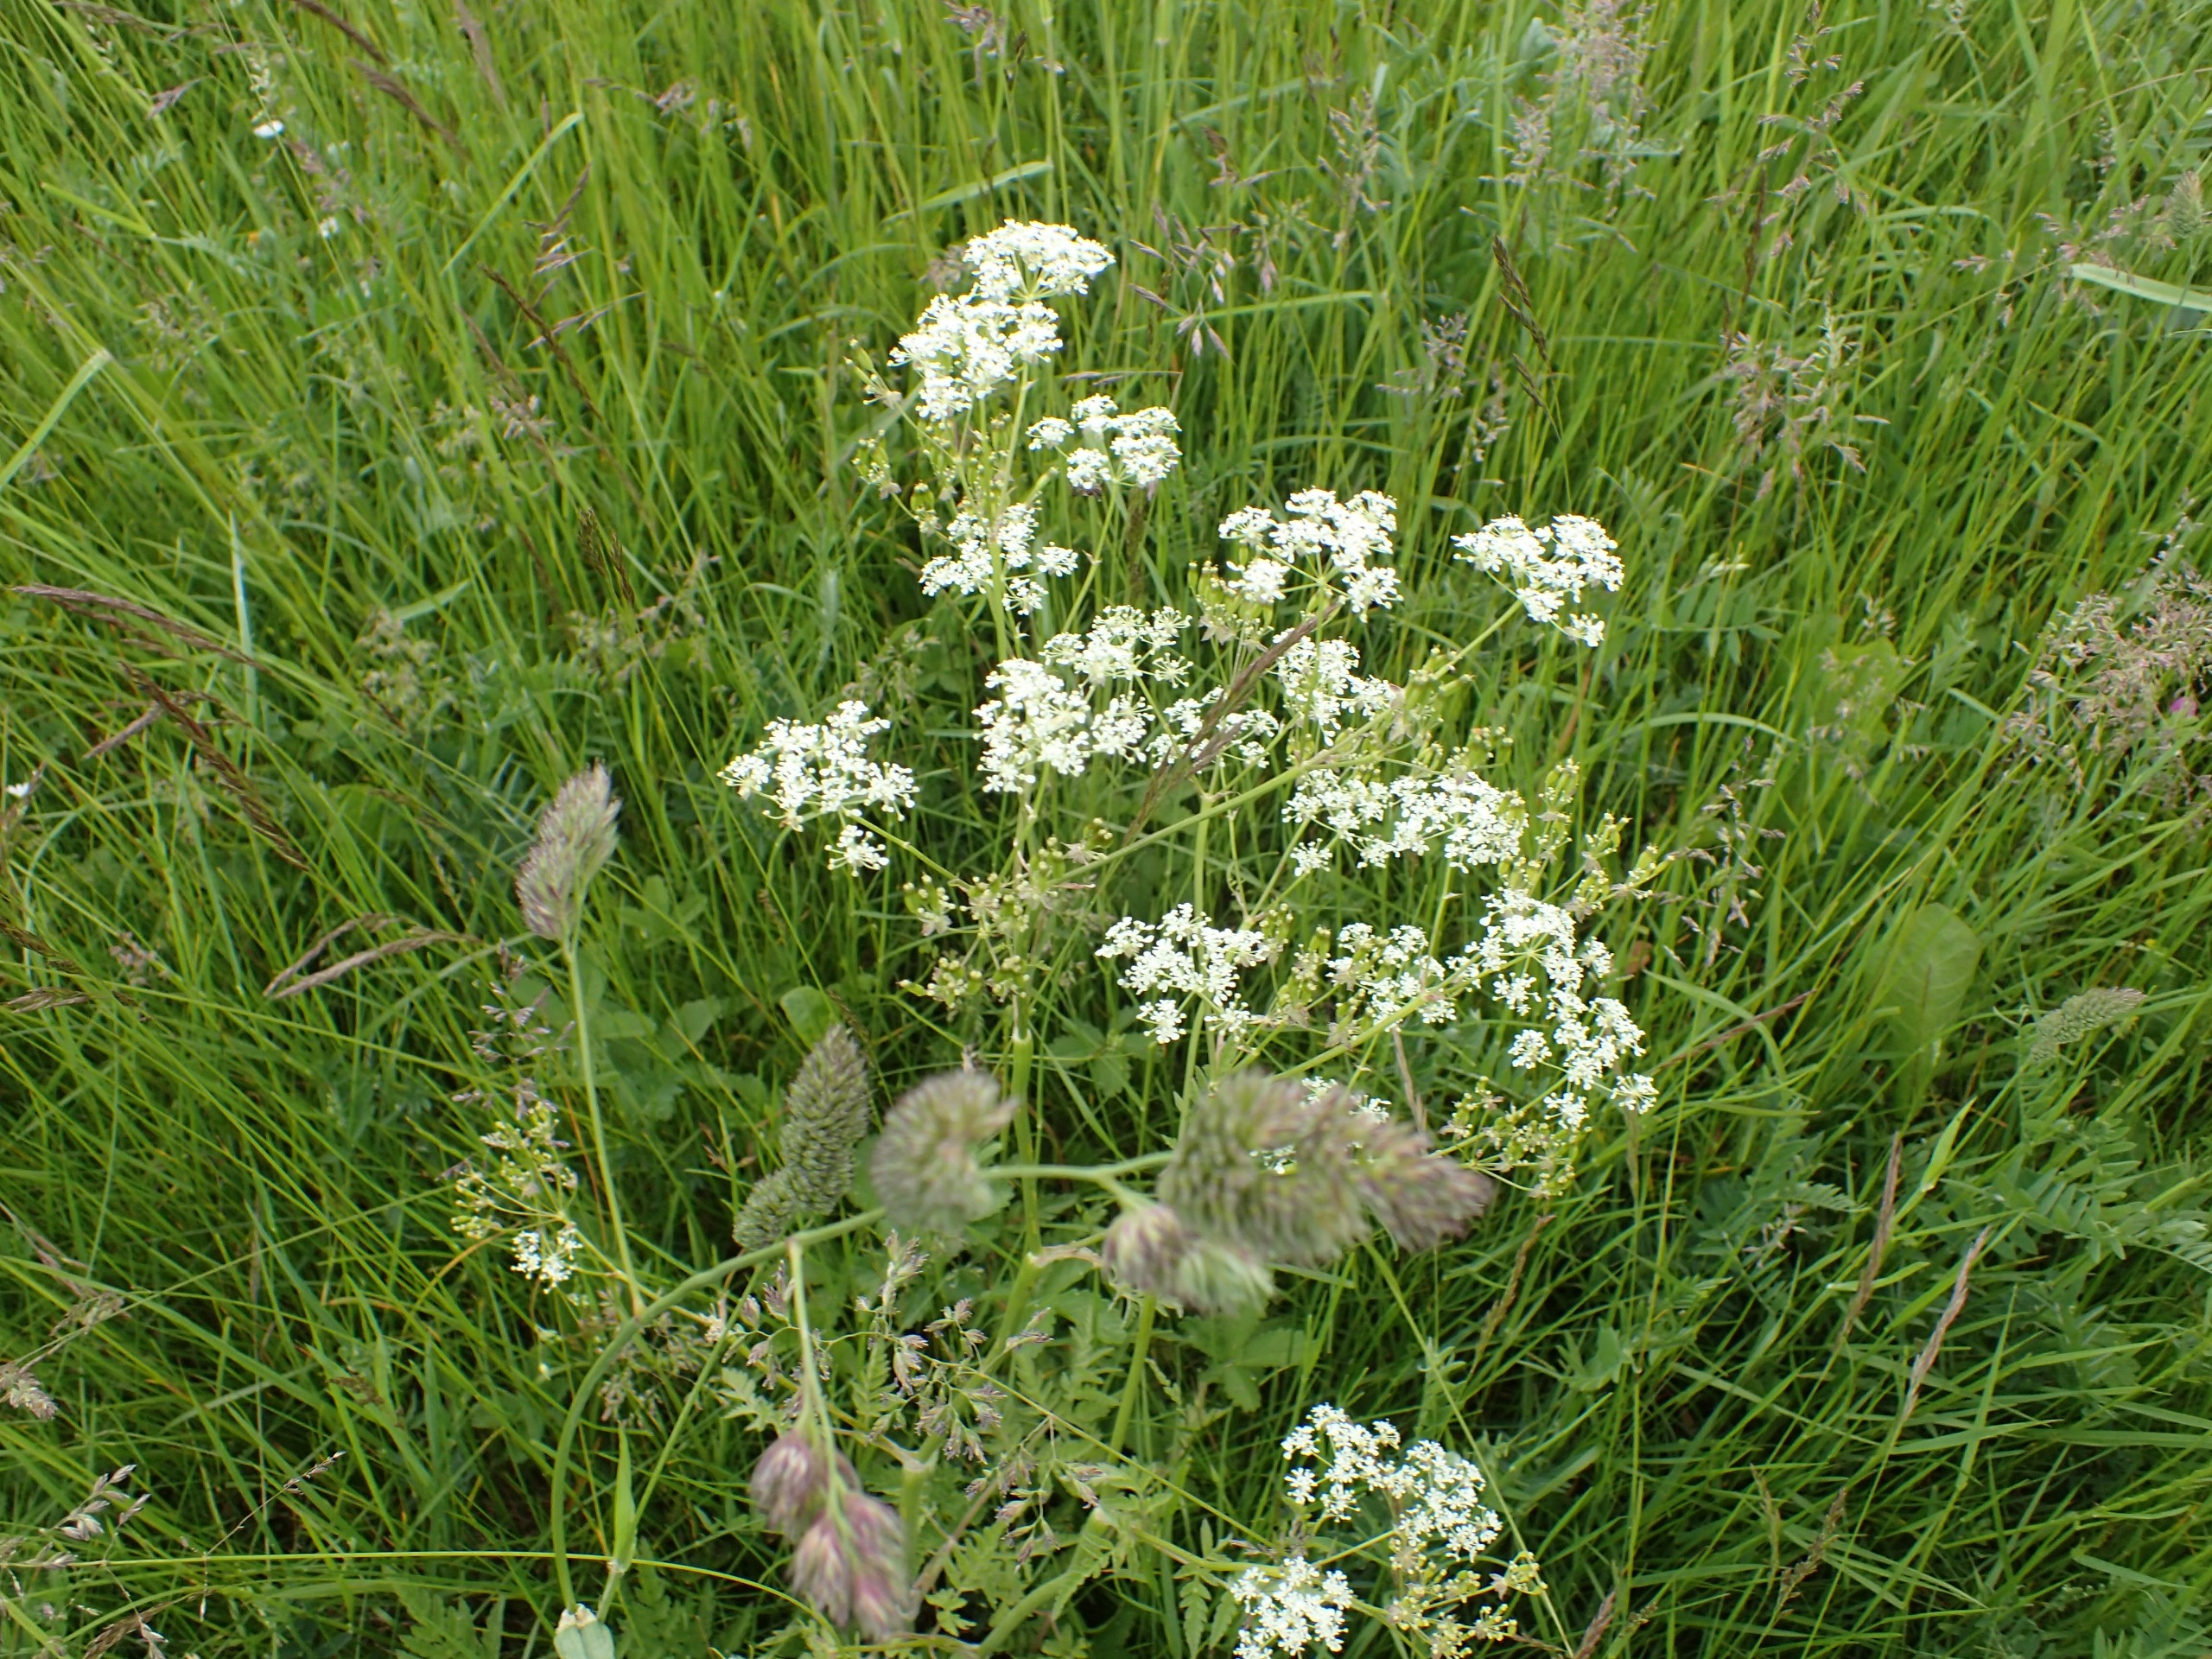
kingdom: Plantae
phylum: Tracheophyta
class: Magnoliopsida
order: Apiales
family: Apiaceae
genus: Anthriscus
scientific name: Anthriscus sylvestris
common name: Vild kørvel
